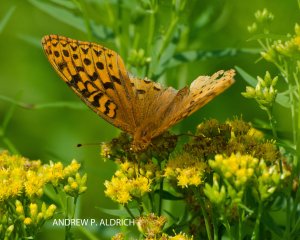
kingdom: Animalia
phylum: Arthropoda
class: Insecta
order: Lepidoptera
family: Nymphalidae
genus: Speyeria
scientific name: Speyeria cybele
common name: Great Spangled Fritillary
